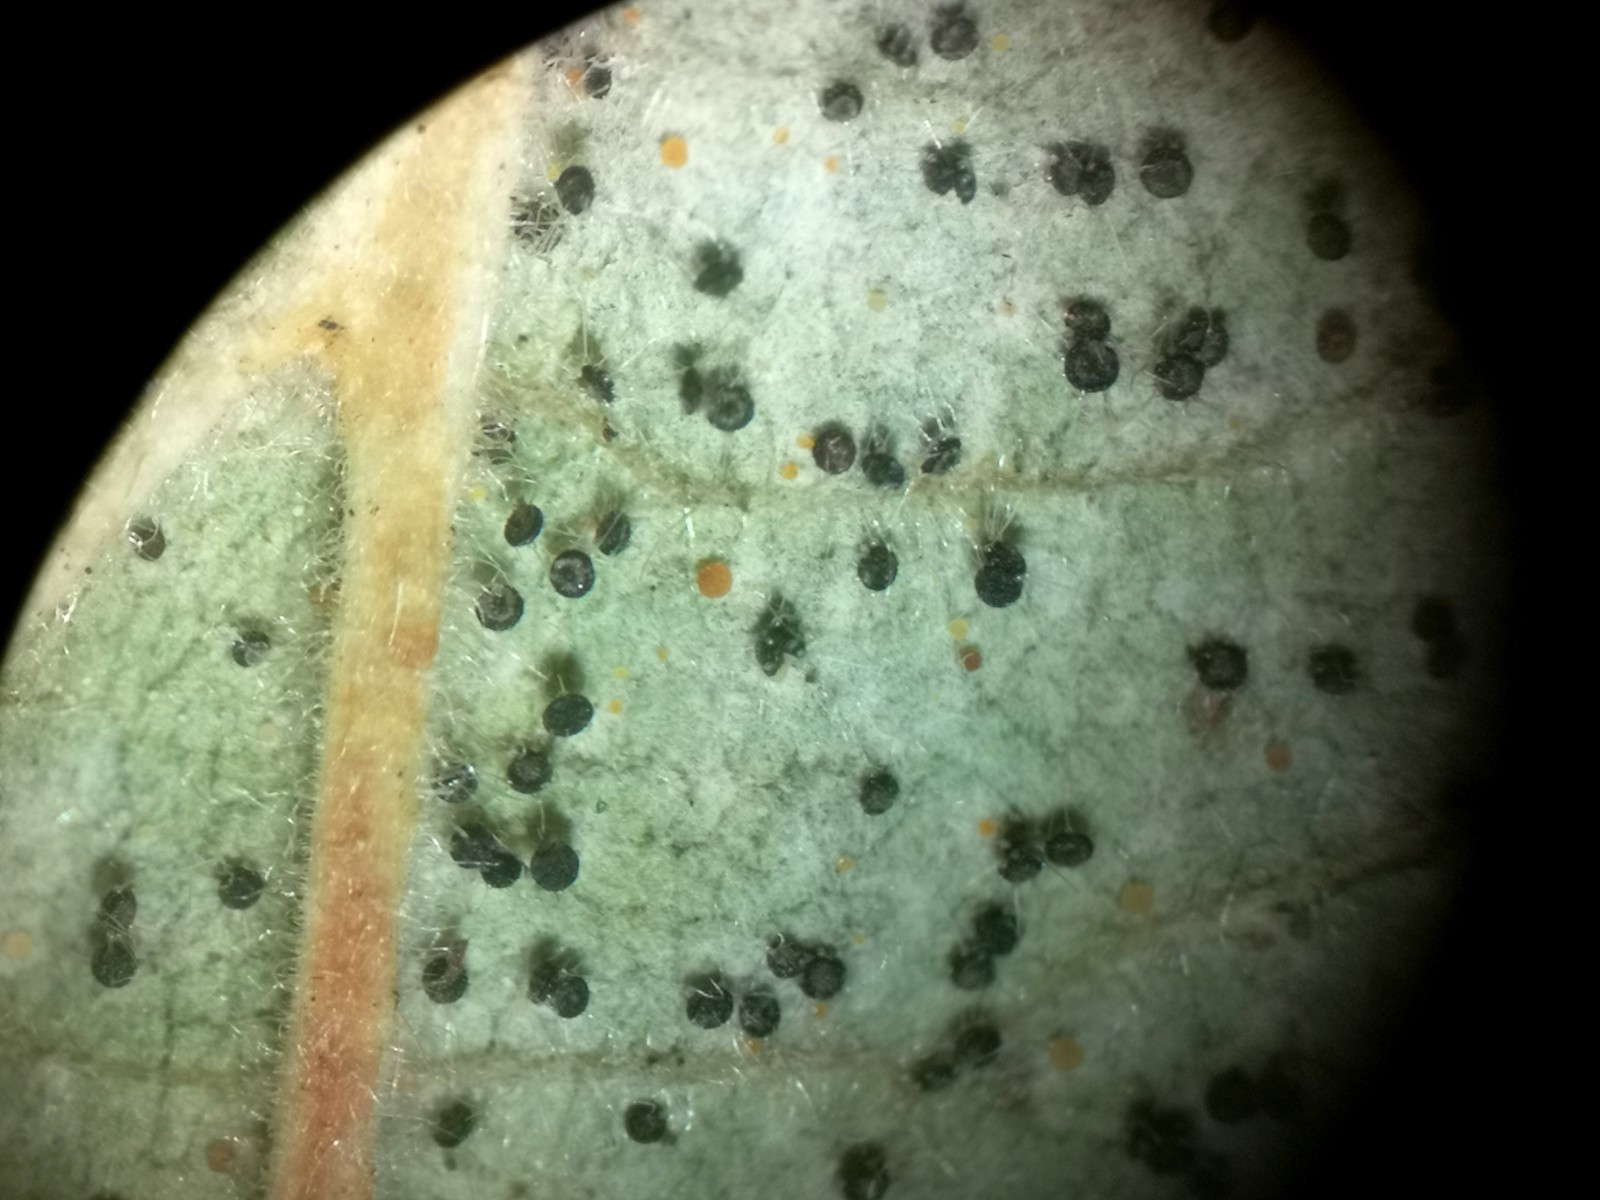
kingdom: Fungi
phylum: Ascomycota
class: Leotiomycetes
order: Helotiales
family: Erysiphaceae
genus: Phyllactinia
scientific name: Phyllactinia guttata
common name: hassel-meldug
